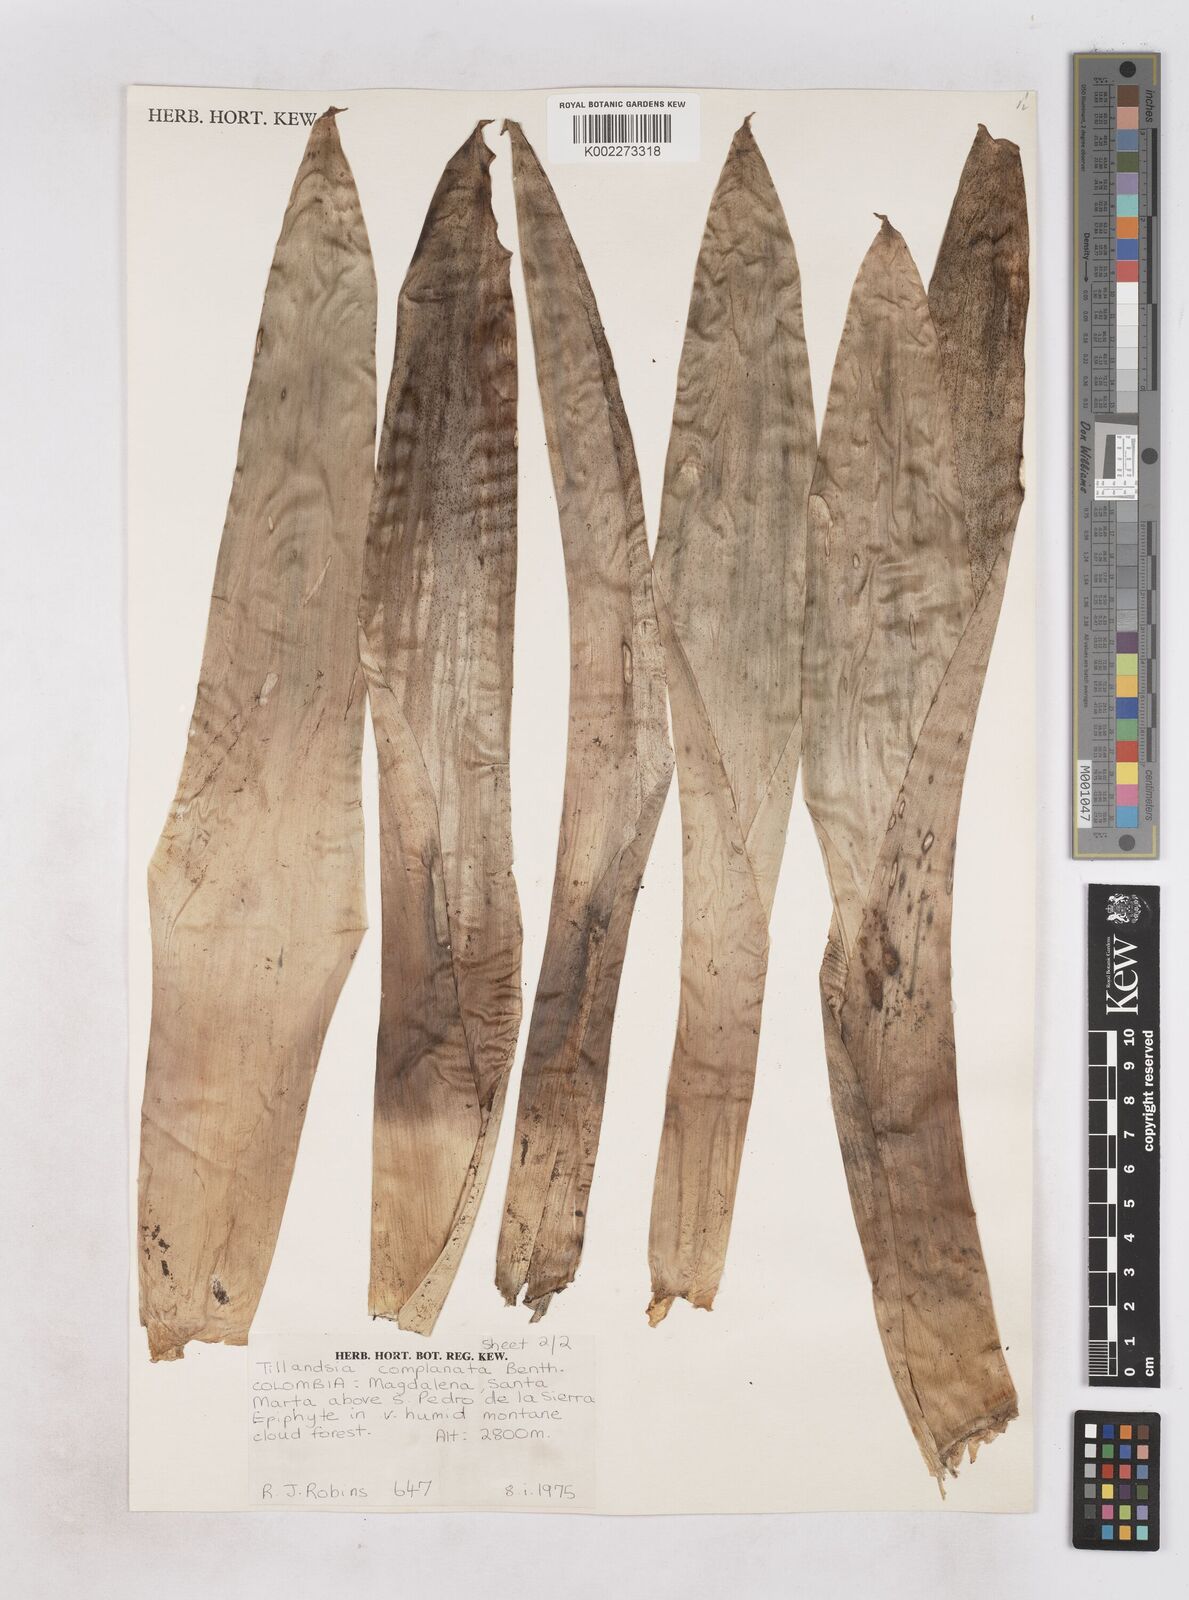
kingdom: Plantae
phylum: Tracheophyta
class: Liliopsida
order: Poales
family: Bromeliaceae
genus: Tillandsia
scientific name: Tillandsia complanata
